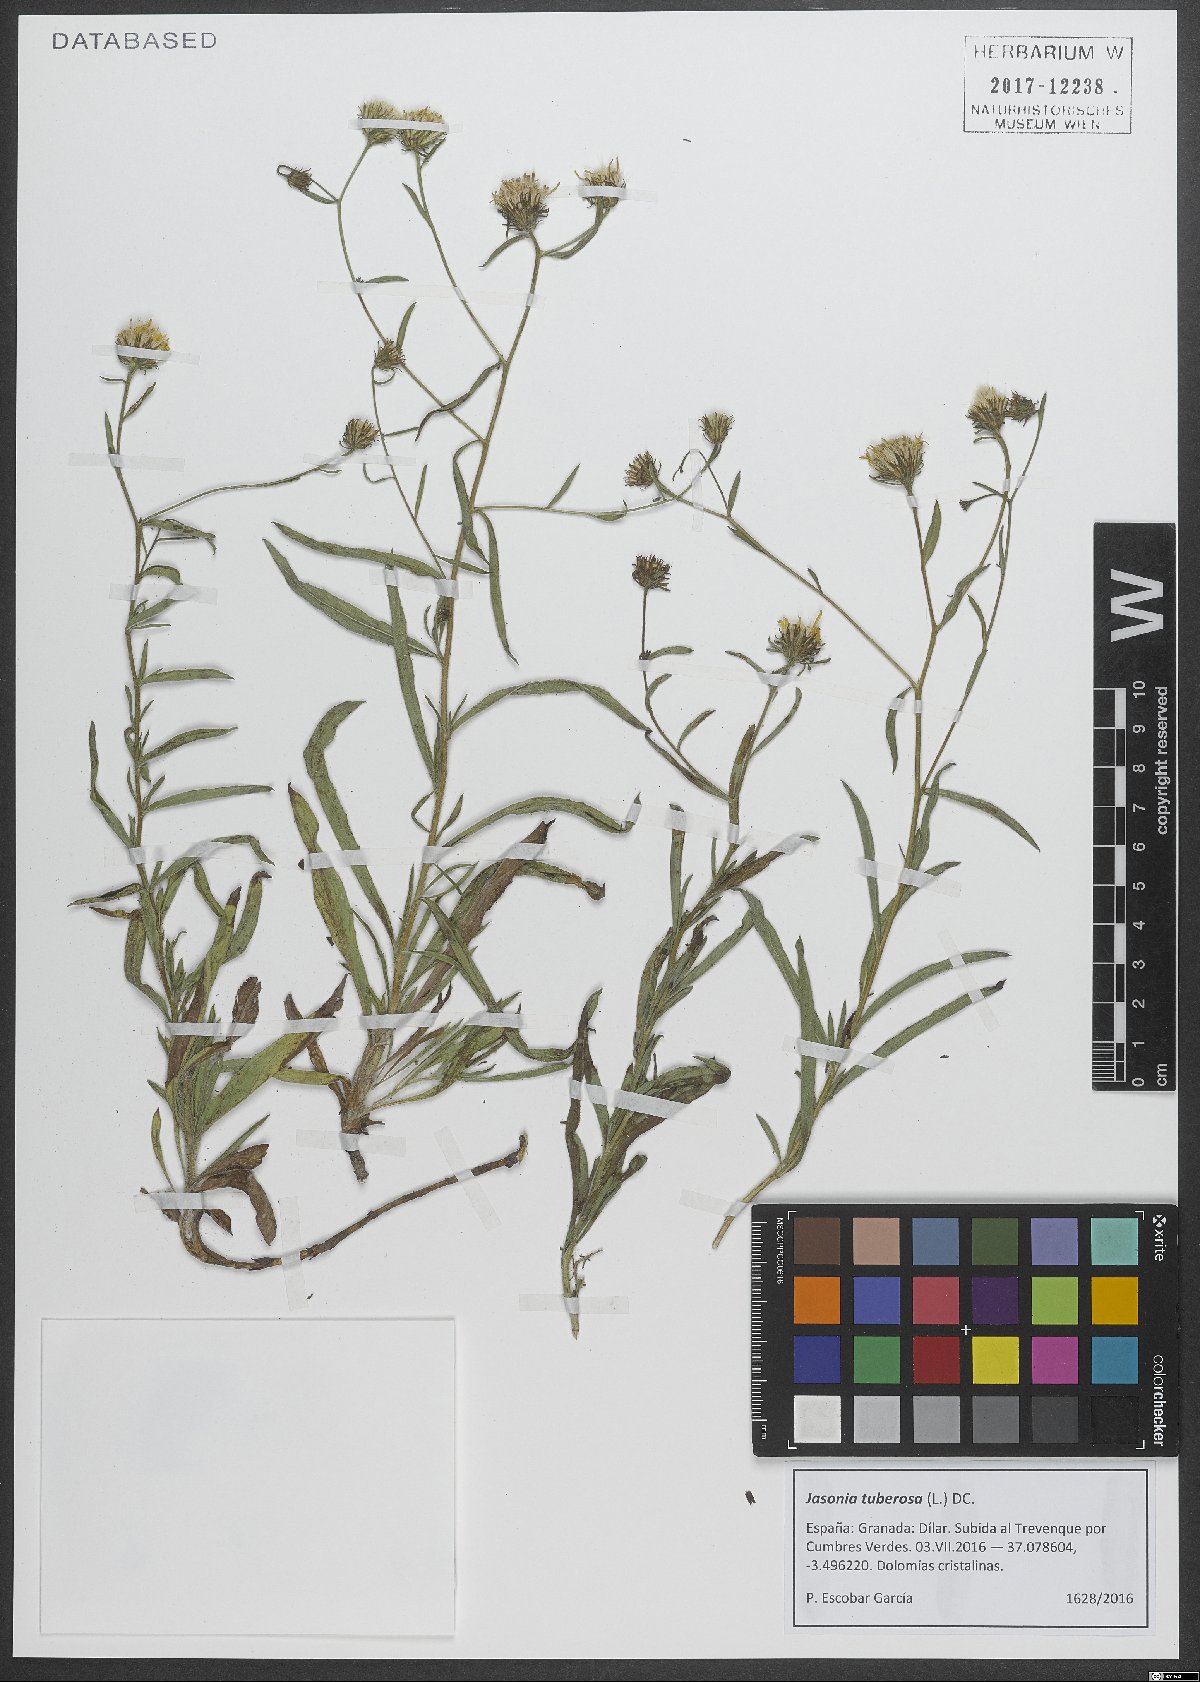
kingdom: Plantae
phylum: Tracheophyta
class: Magnoliopsida
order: Asterales
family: Asteraceae
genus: Jasonia
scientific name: Jasonia tuberosa
